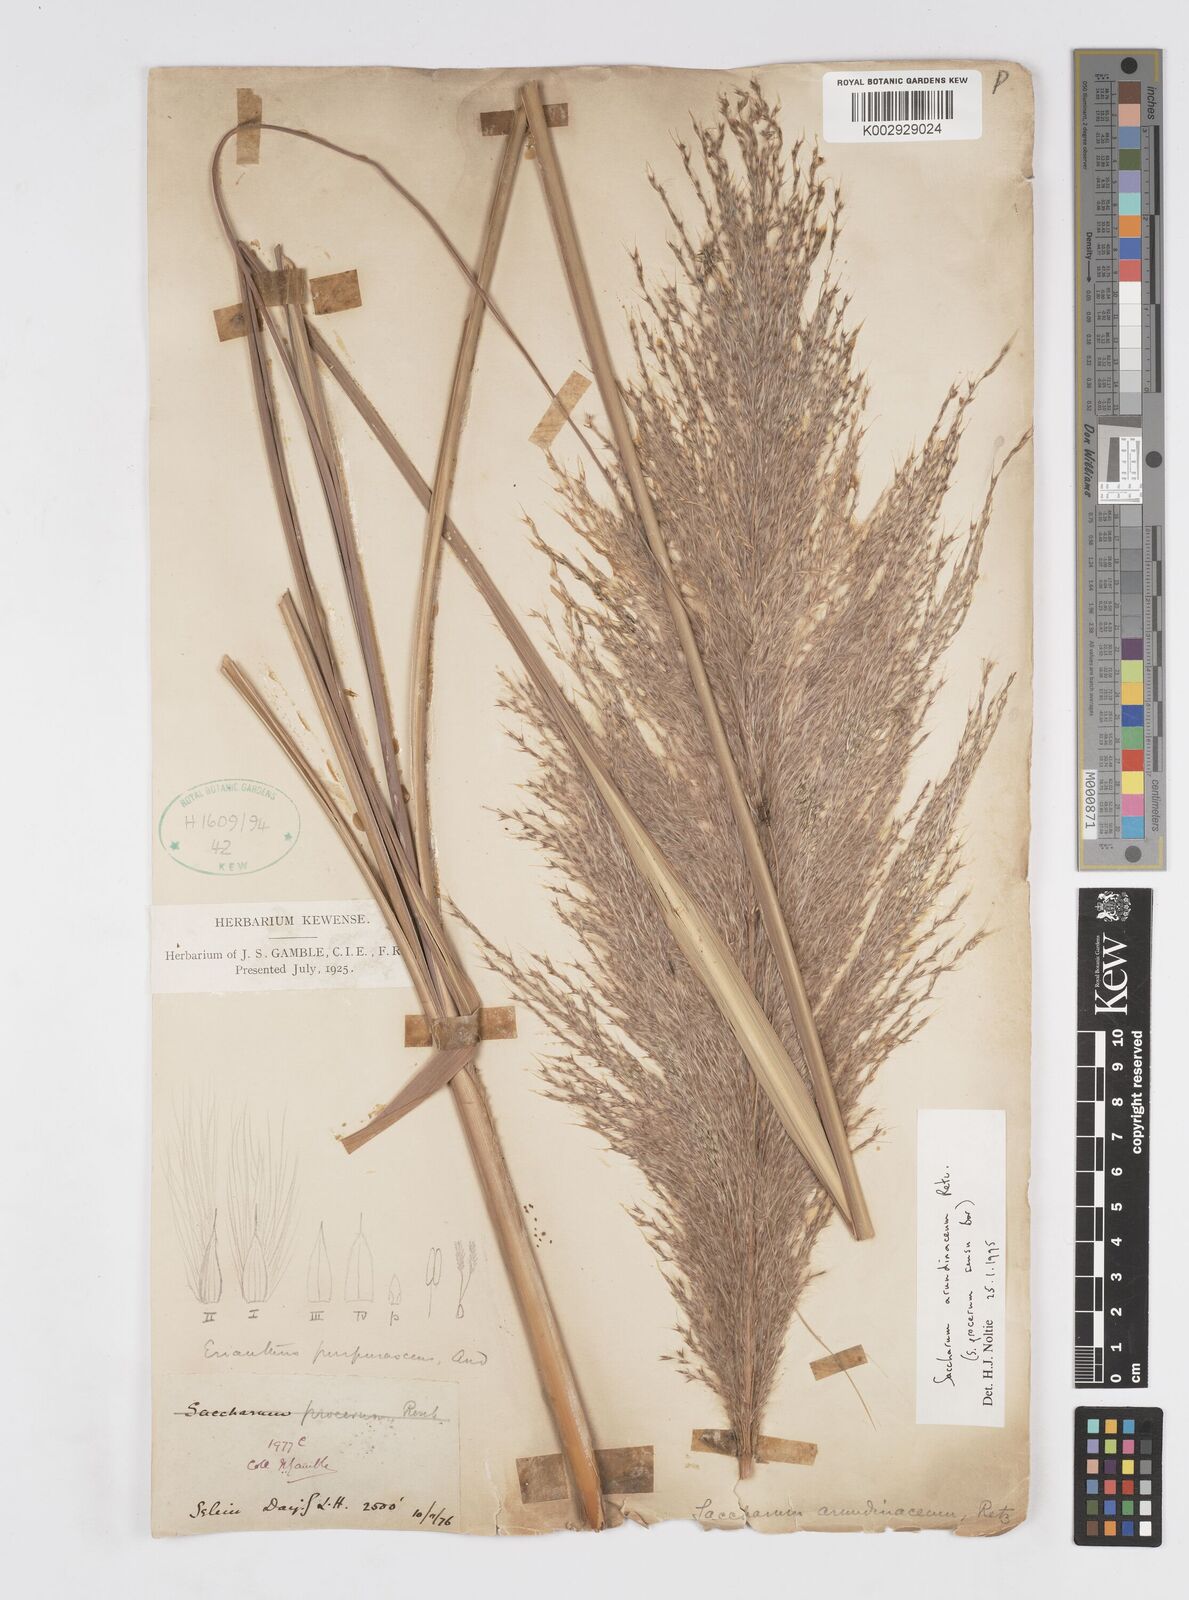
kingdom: Plantae
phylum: Tracheophyta
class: Liliopsida
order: Poales
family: Poaceae
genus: Tripidium
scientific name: Tripidium arundinaceum
